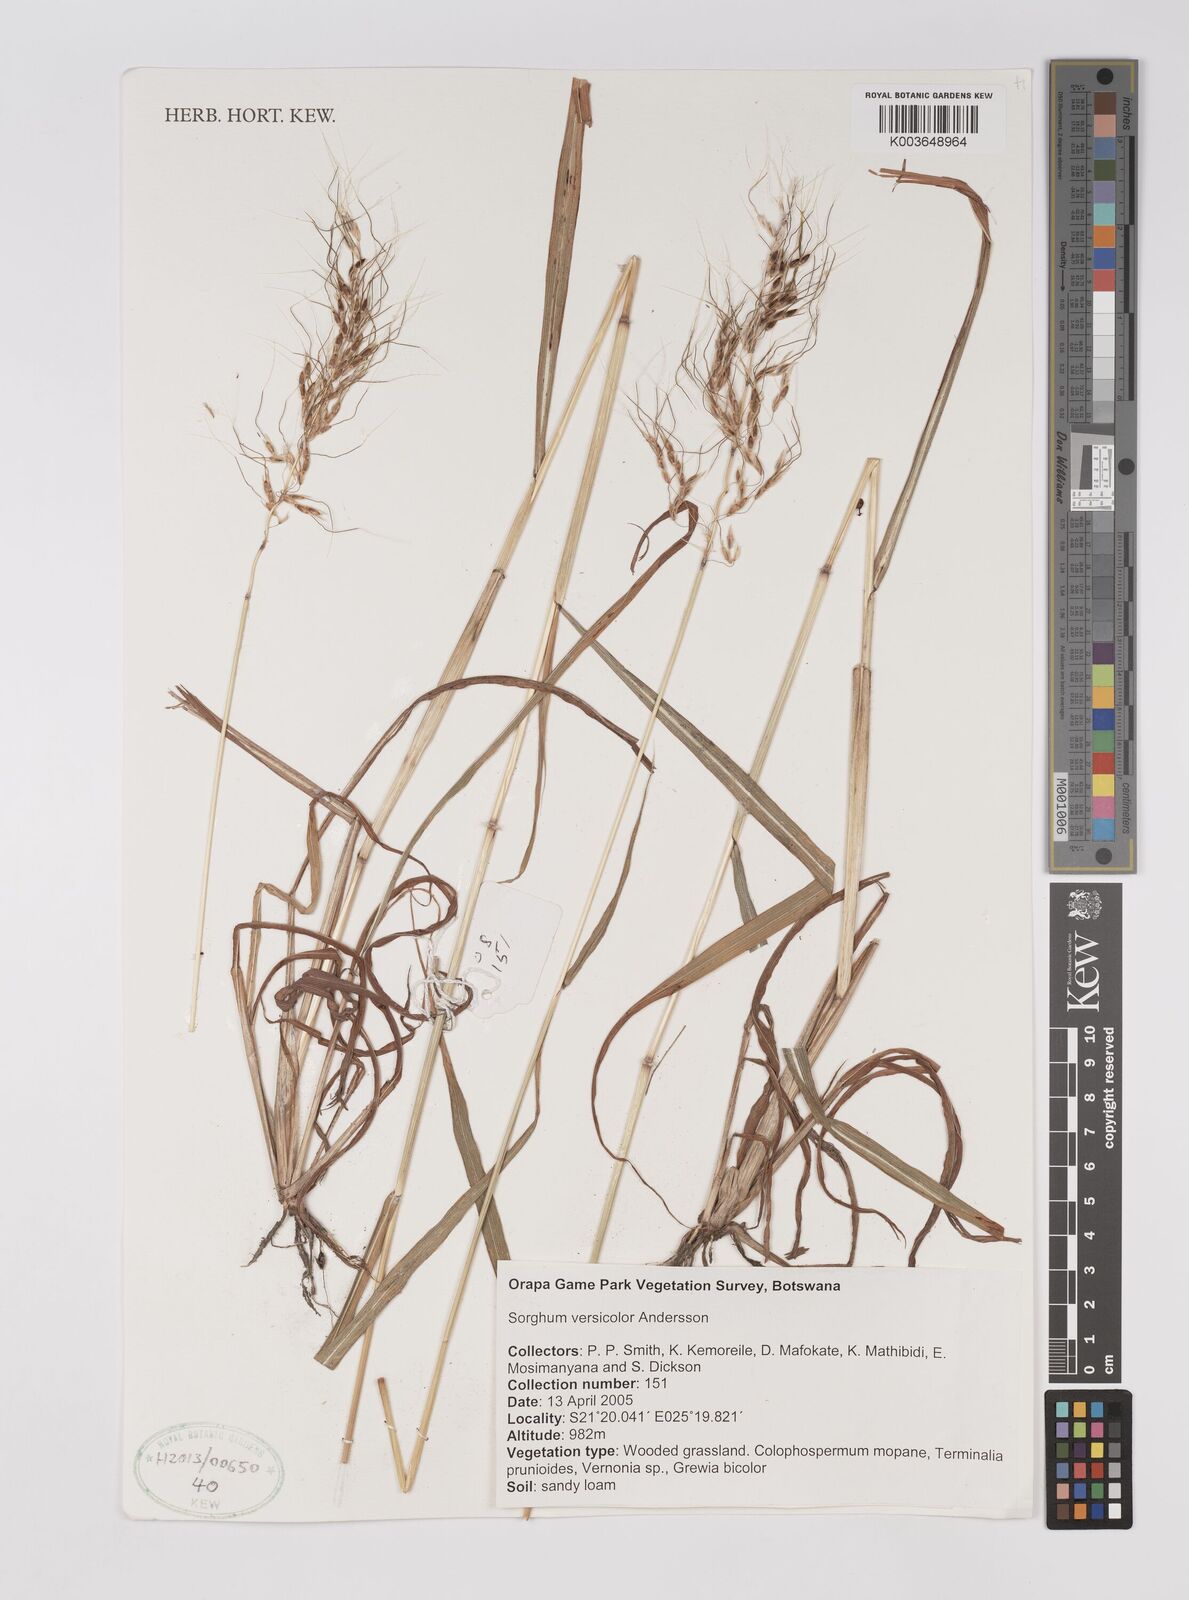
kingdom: Plantae
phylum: Tracheophyta
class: Liliopsida
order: Poales
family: Poaceae
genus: Sarga
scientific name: Sarga versicolor
